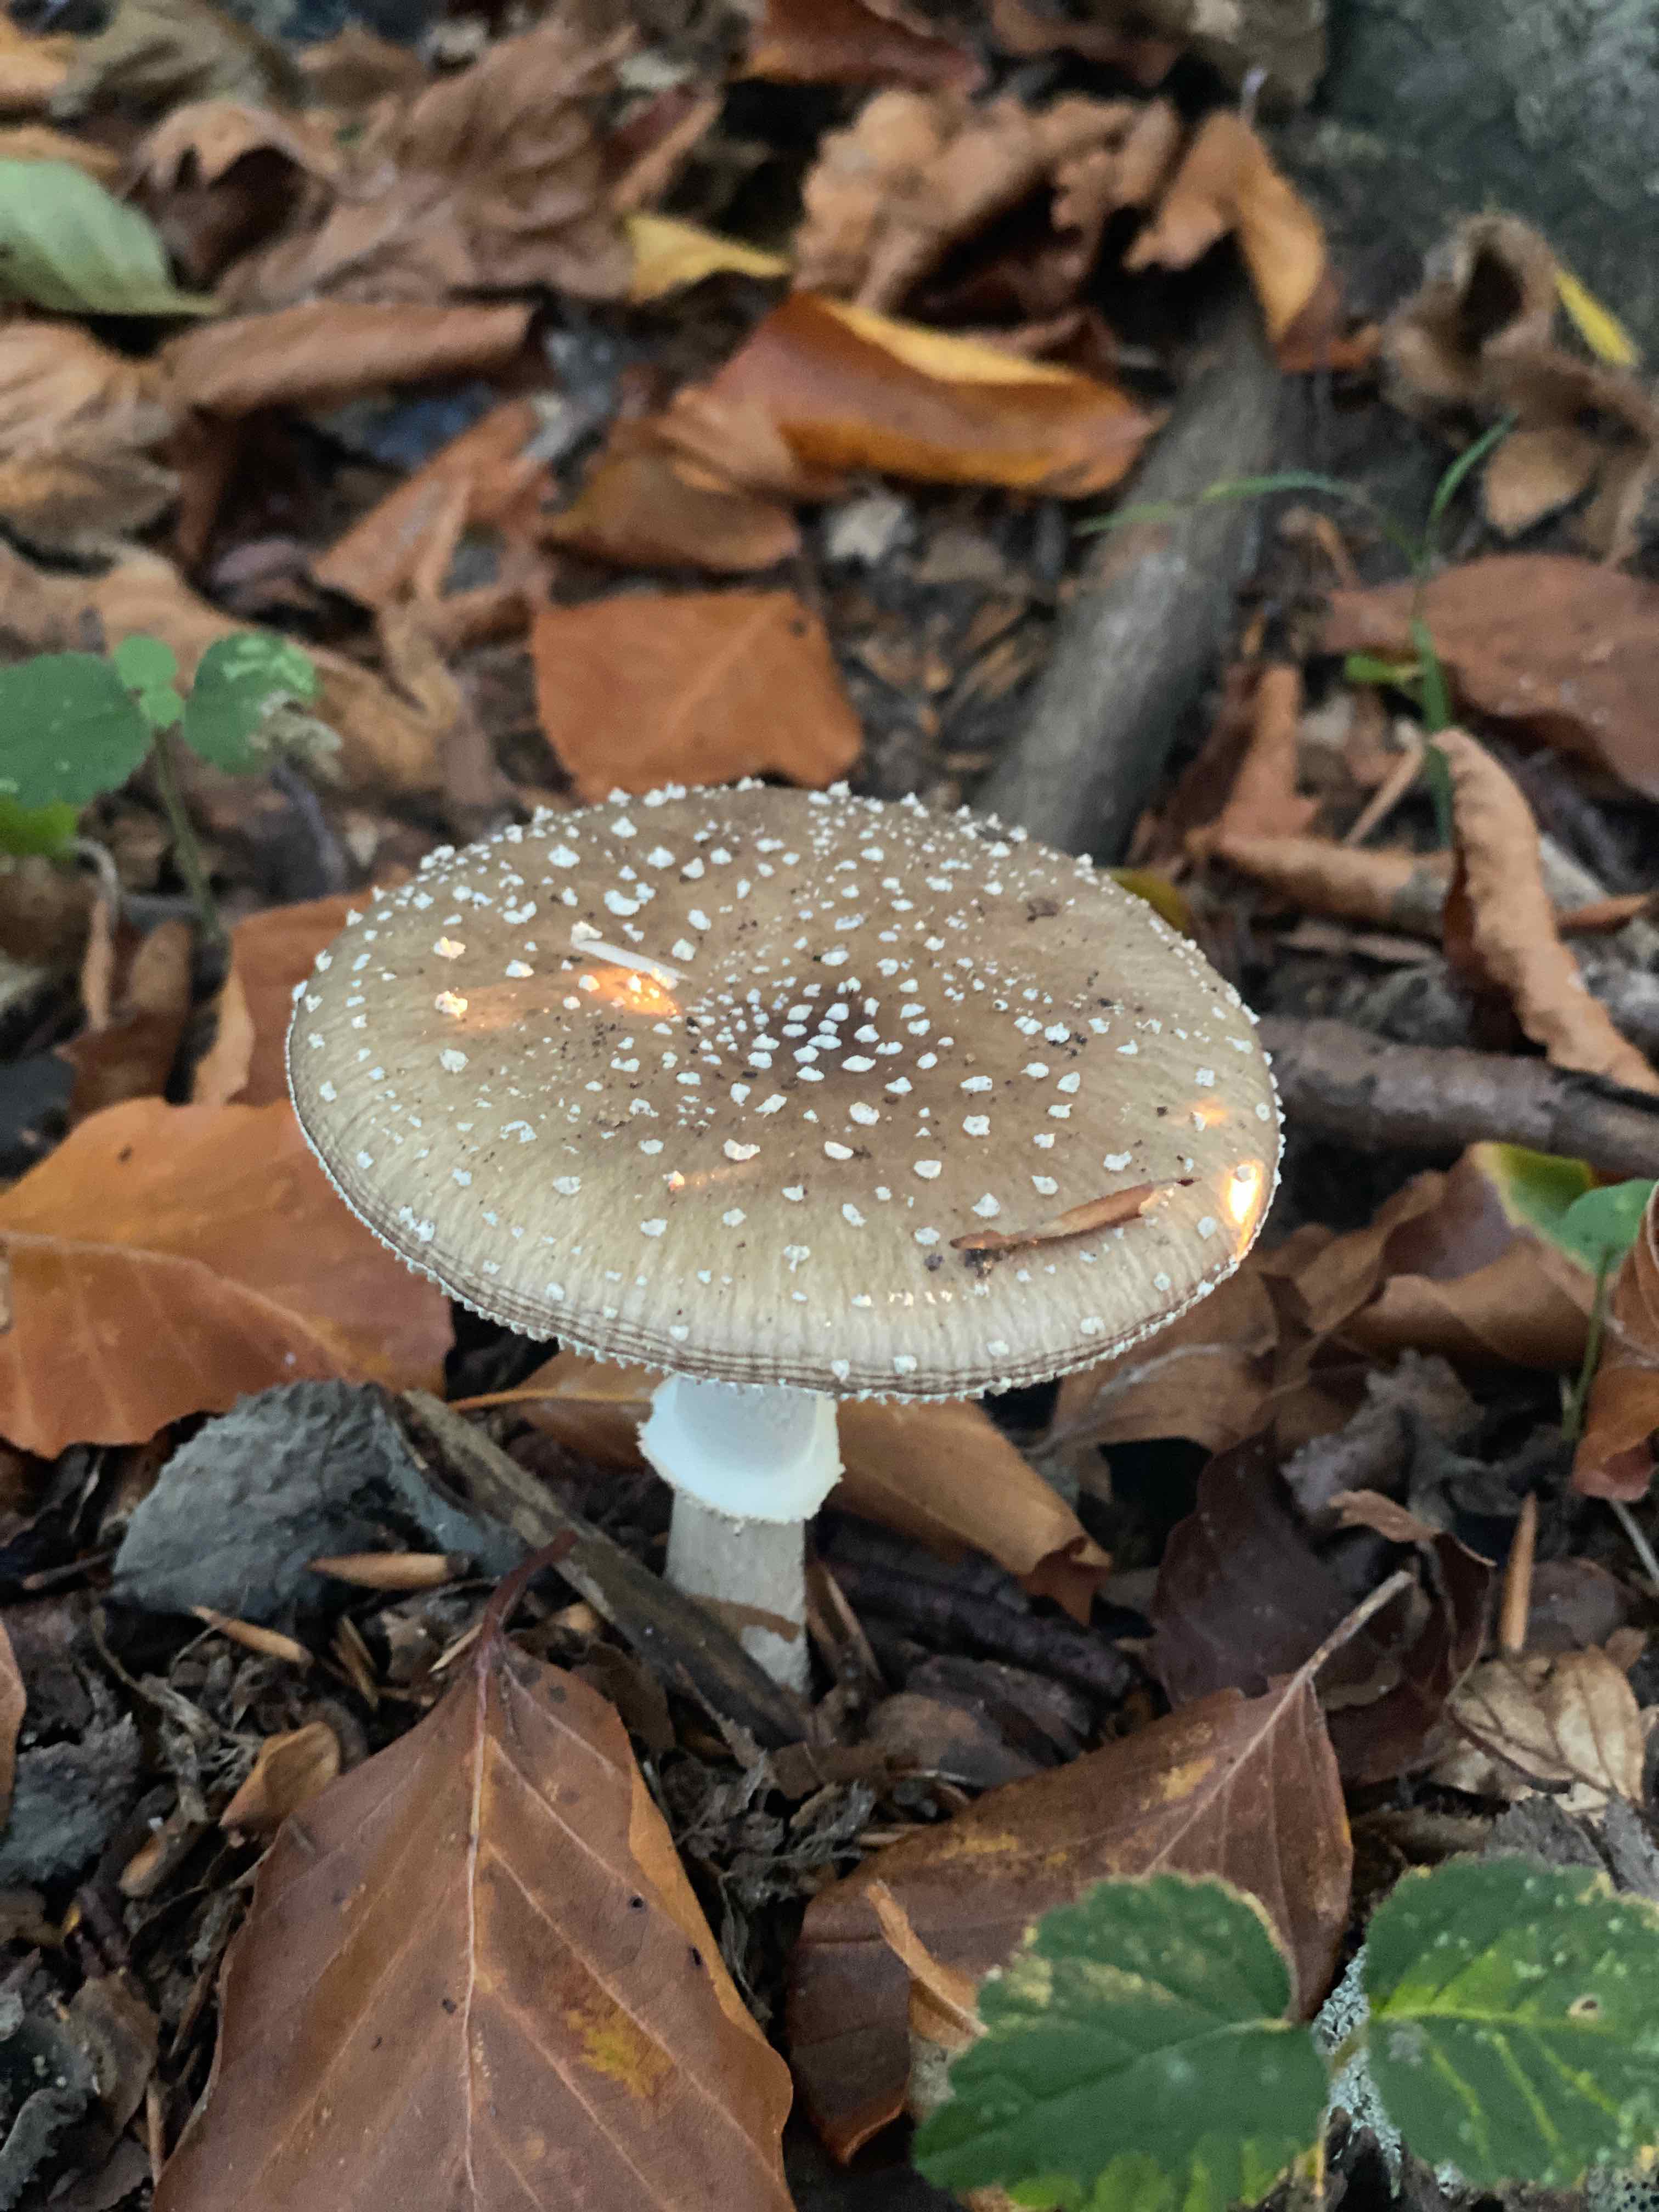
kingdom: Fungi
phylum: Basidiomycota
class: Agaricomycetes
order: Agaricales
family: Amanitaceae
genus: Amanita
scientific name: Amanita pantherina
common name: panter-fluesvamp
